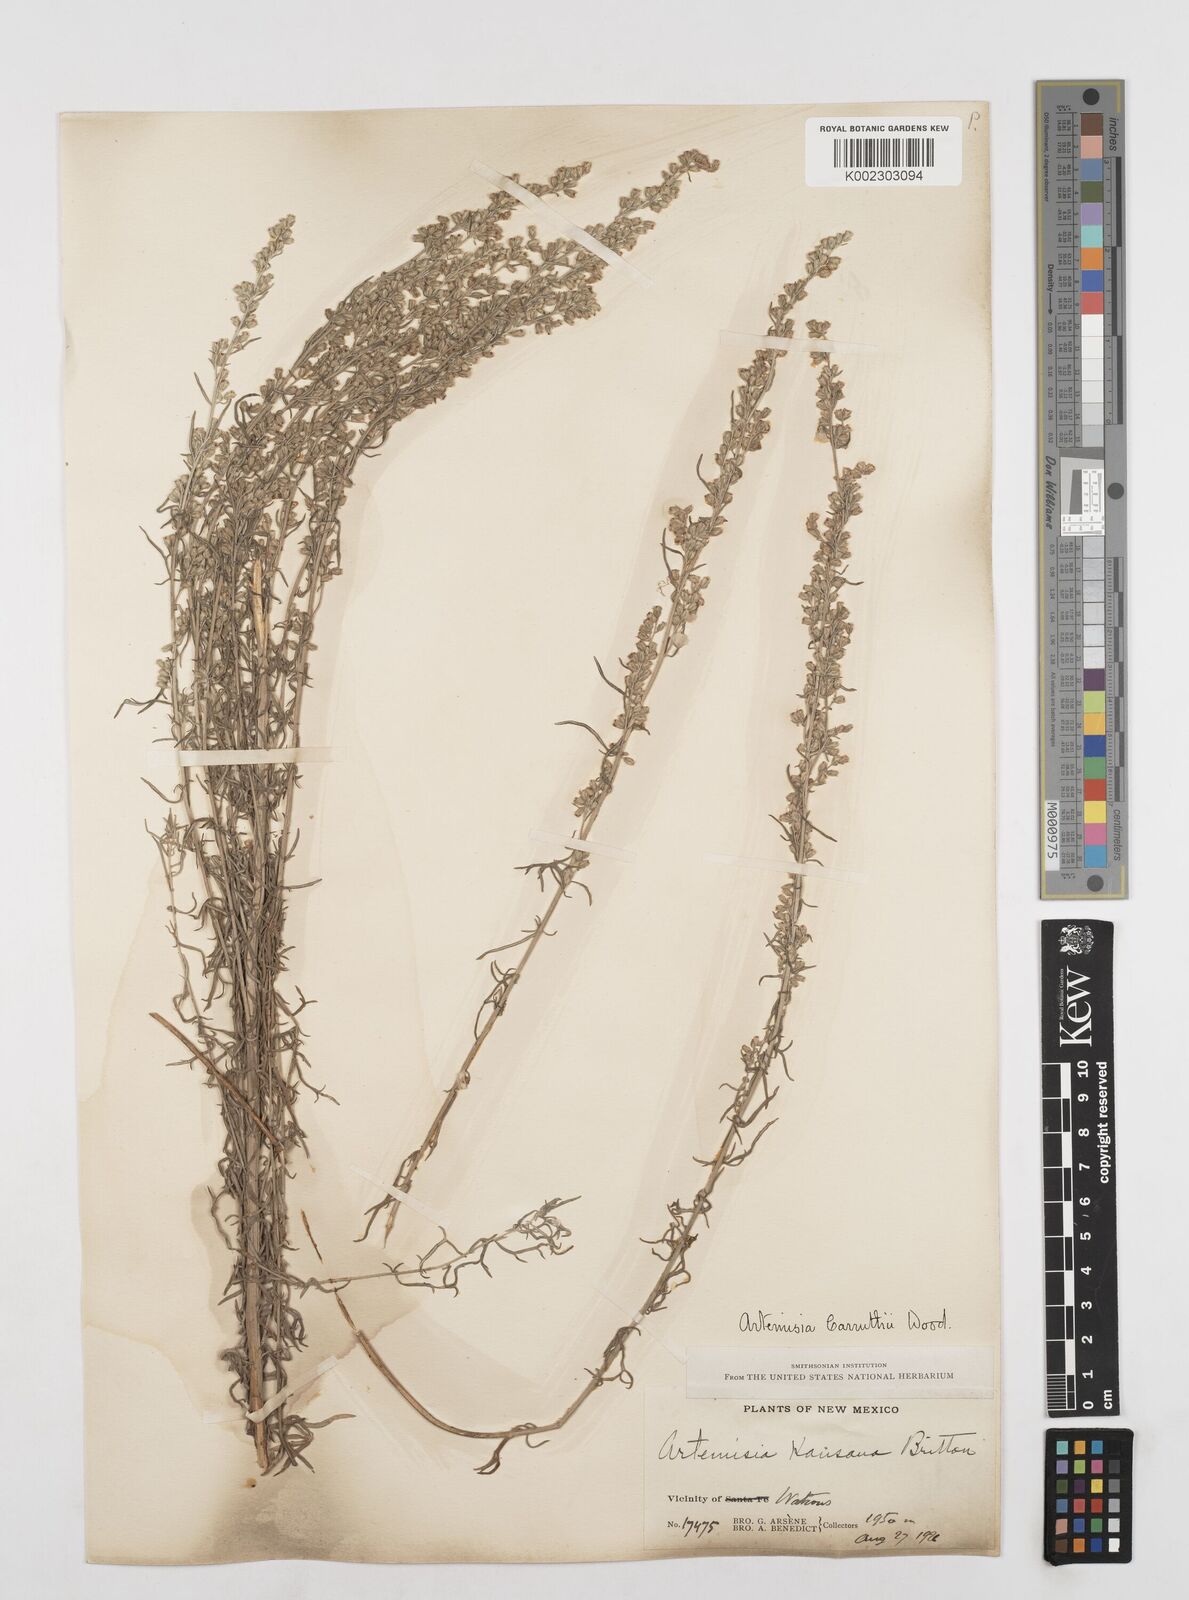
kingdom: Plantae
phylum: Tracheophyta
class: Magnoliopsida
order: Asterales
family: Asteraceae
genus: Artemisia
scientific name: Artemisia carruthii
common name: Carruth wormwood
